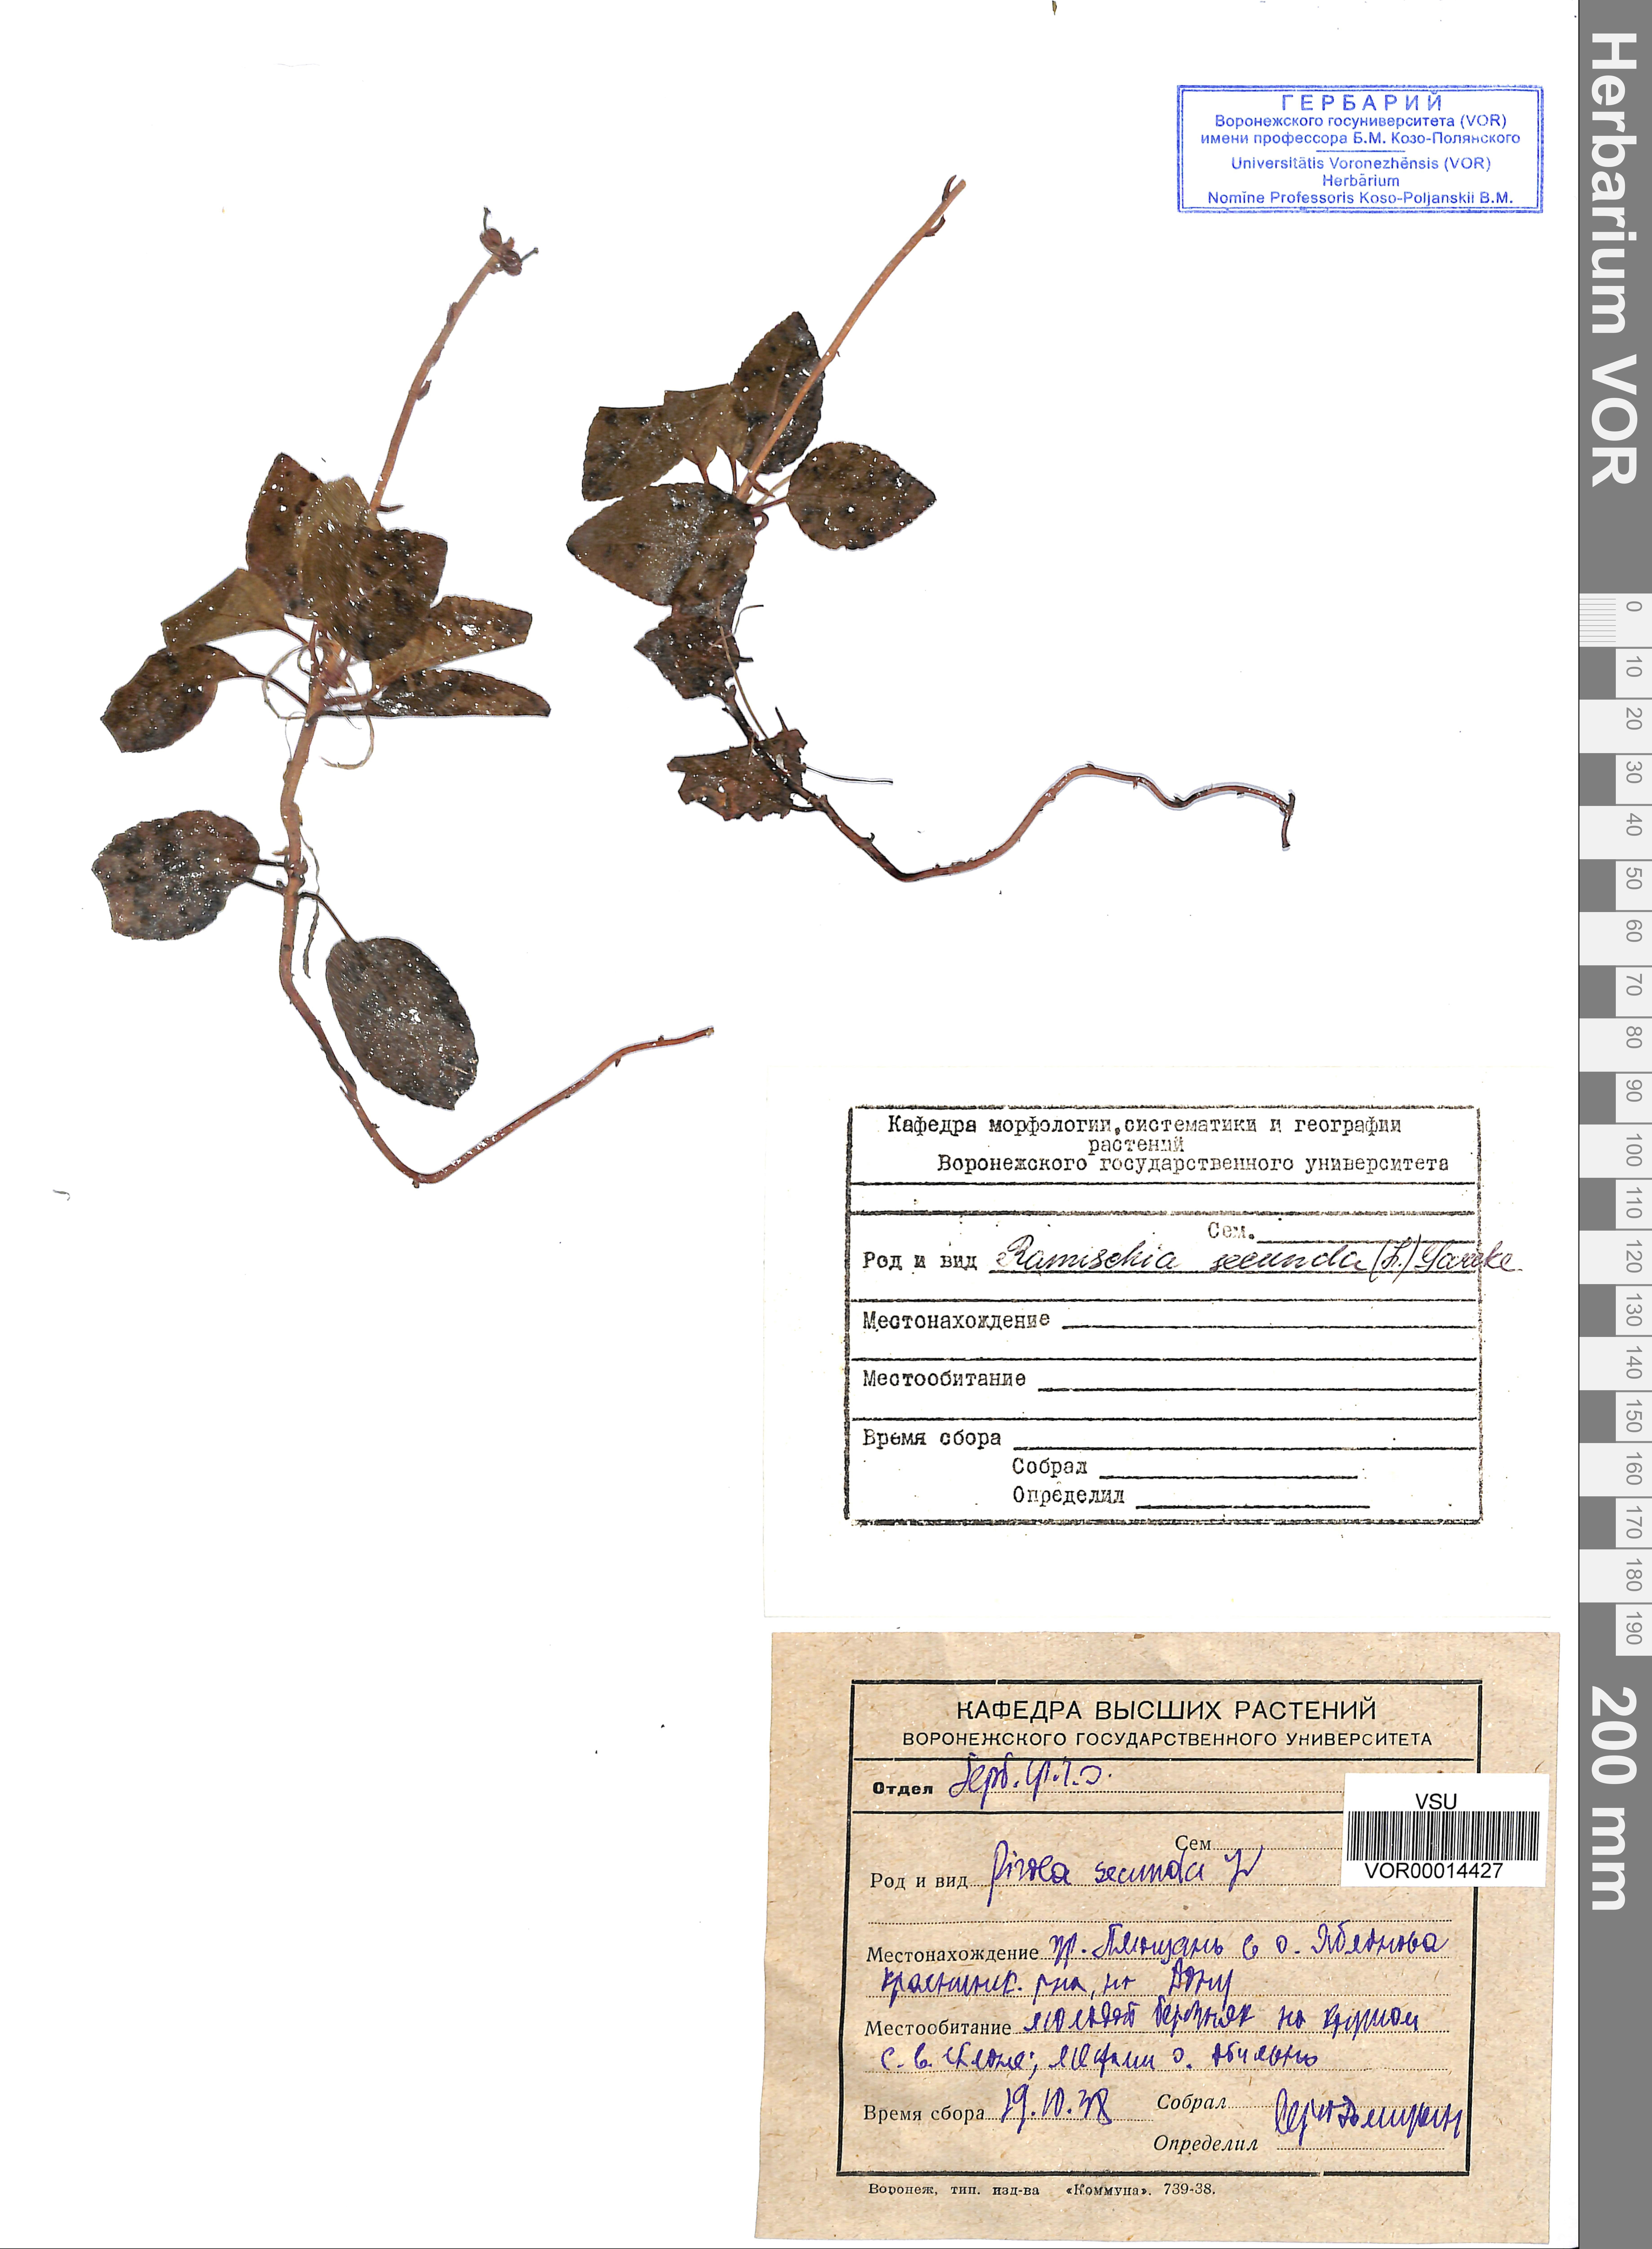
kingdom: Plantae
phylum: Tracheophyta
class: Magnoliopsida
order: Ericales
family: Ericaceae
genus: Orthilia
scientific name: Orthilia secunda
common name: One-sided orthilia
